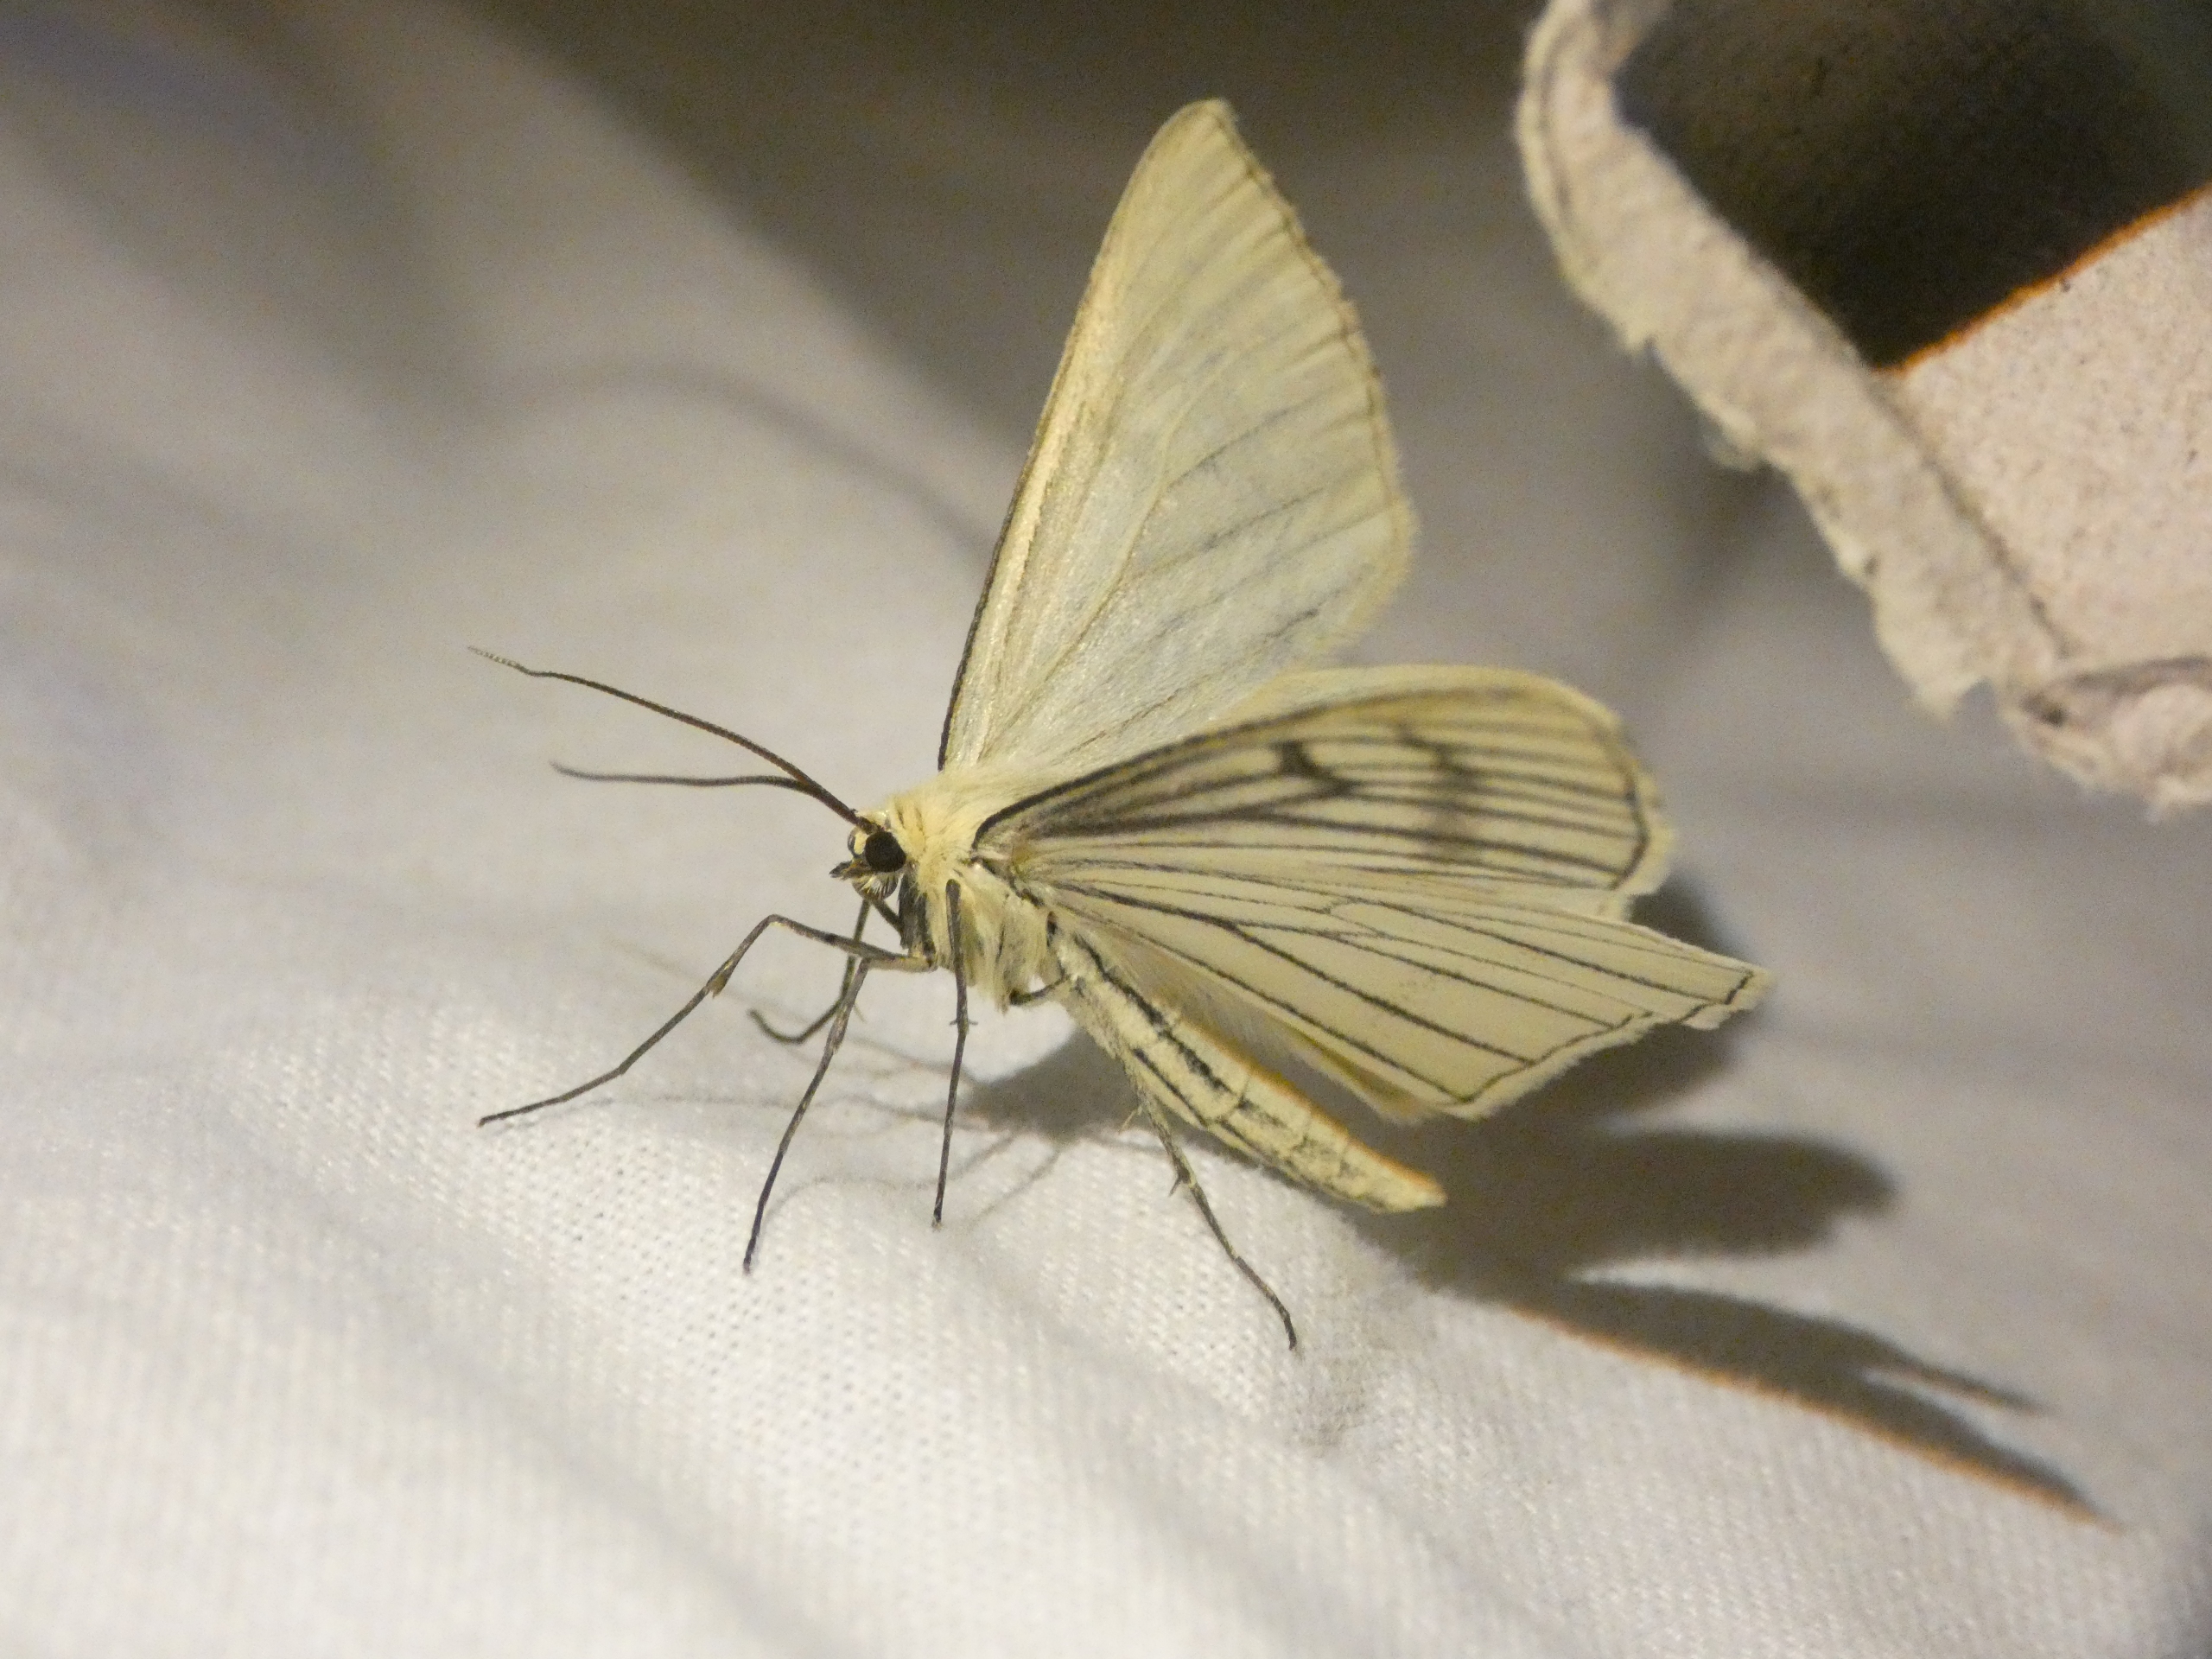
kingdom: Animalia
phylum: Arthropoda
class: Insecta
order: Lepidoptera
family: Geometridae
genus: Siona
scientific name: Siona lineata
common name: Hvidvingemåler
